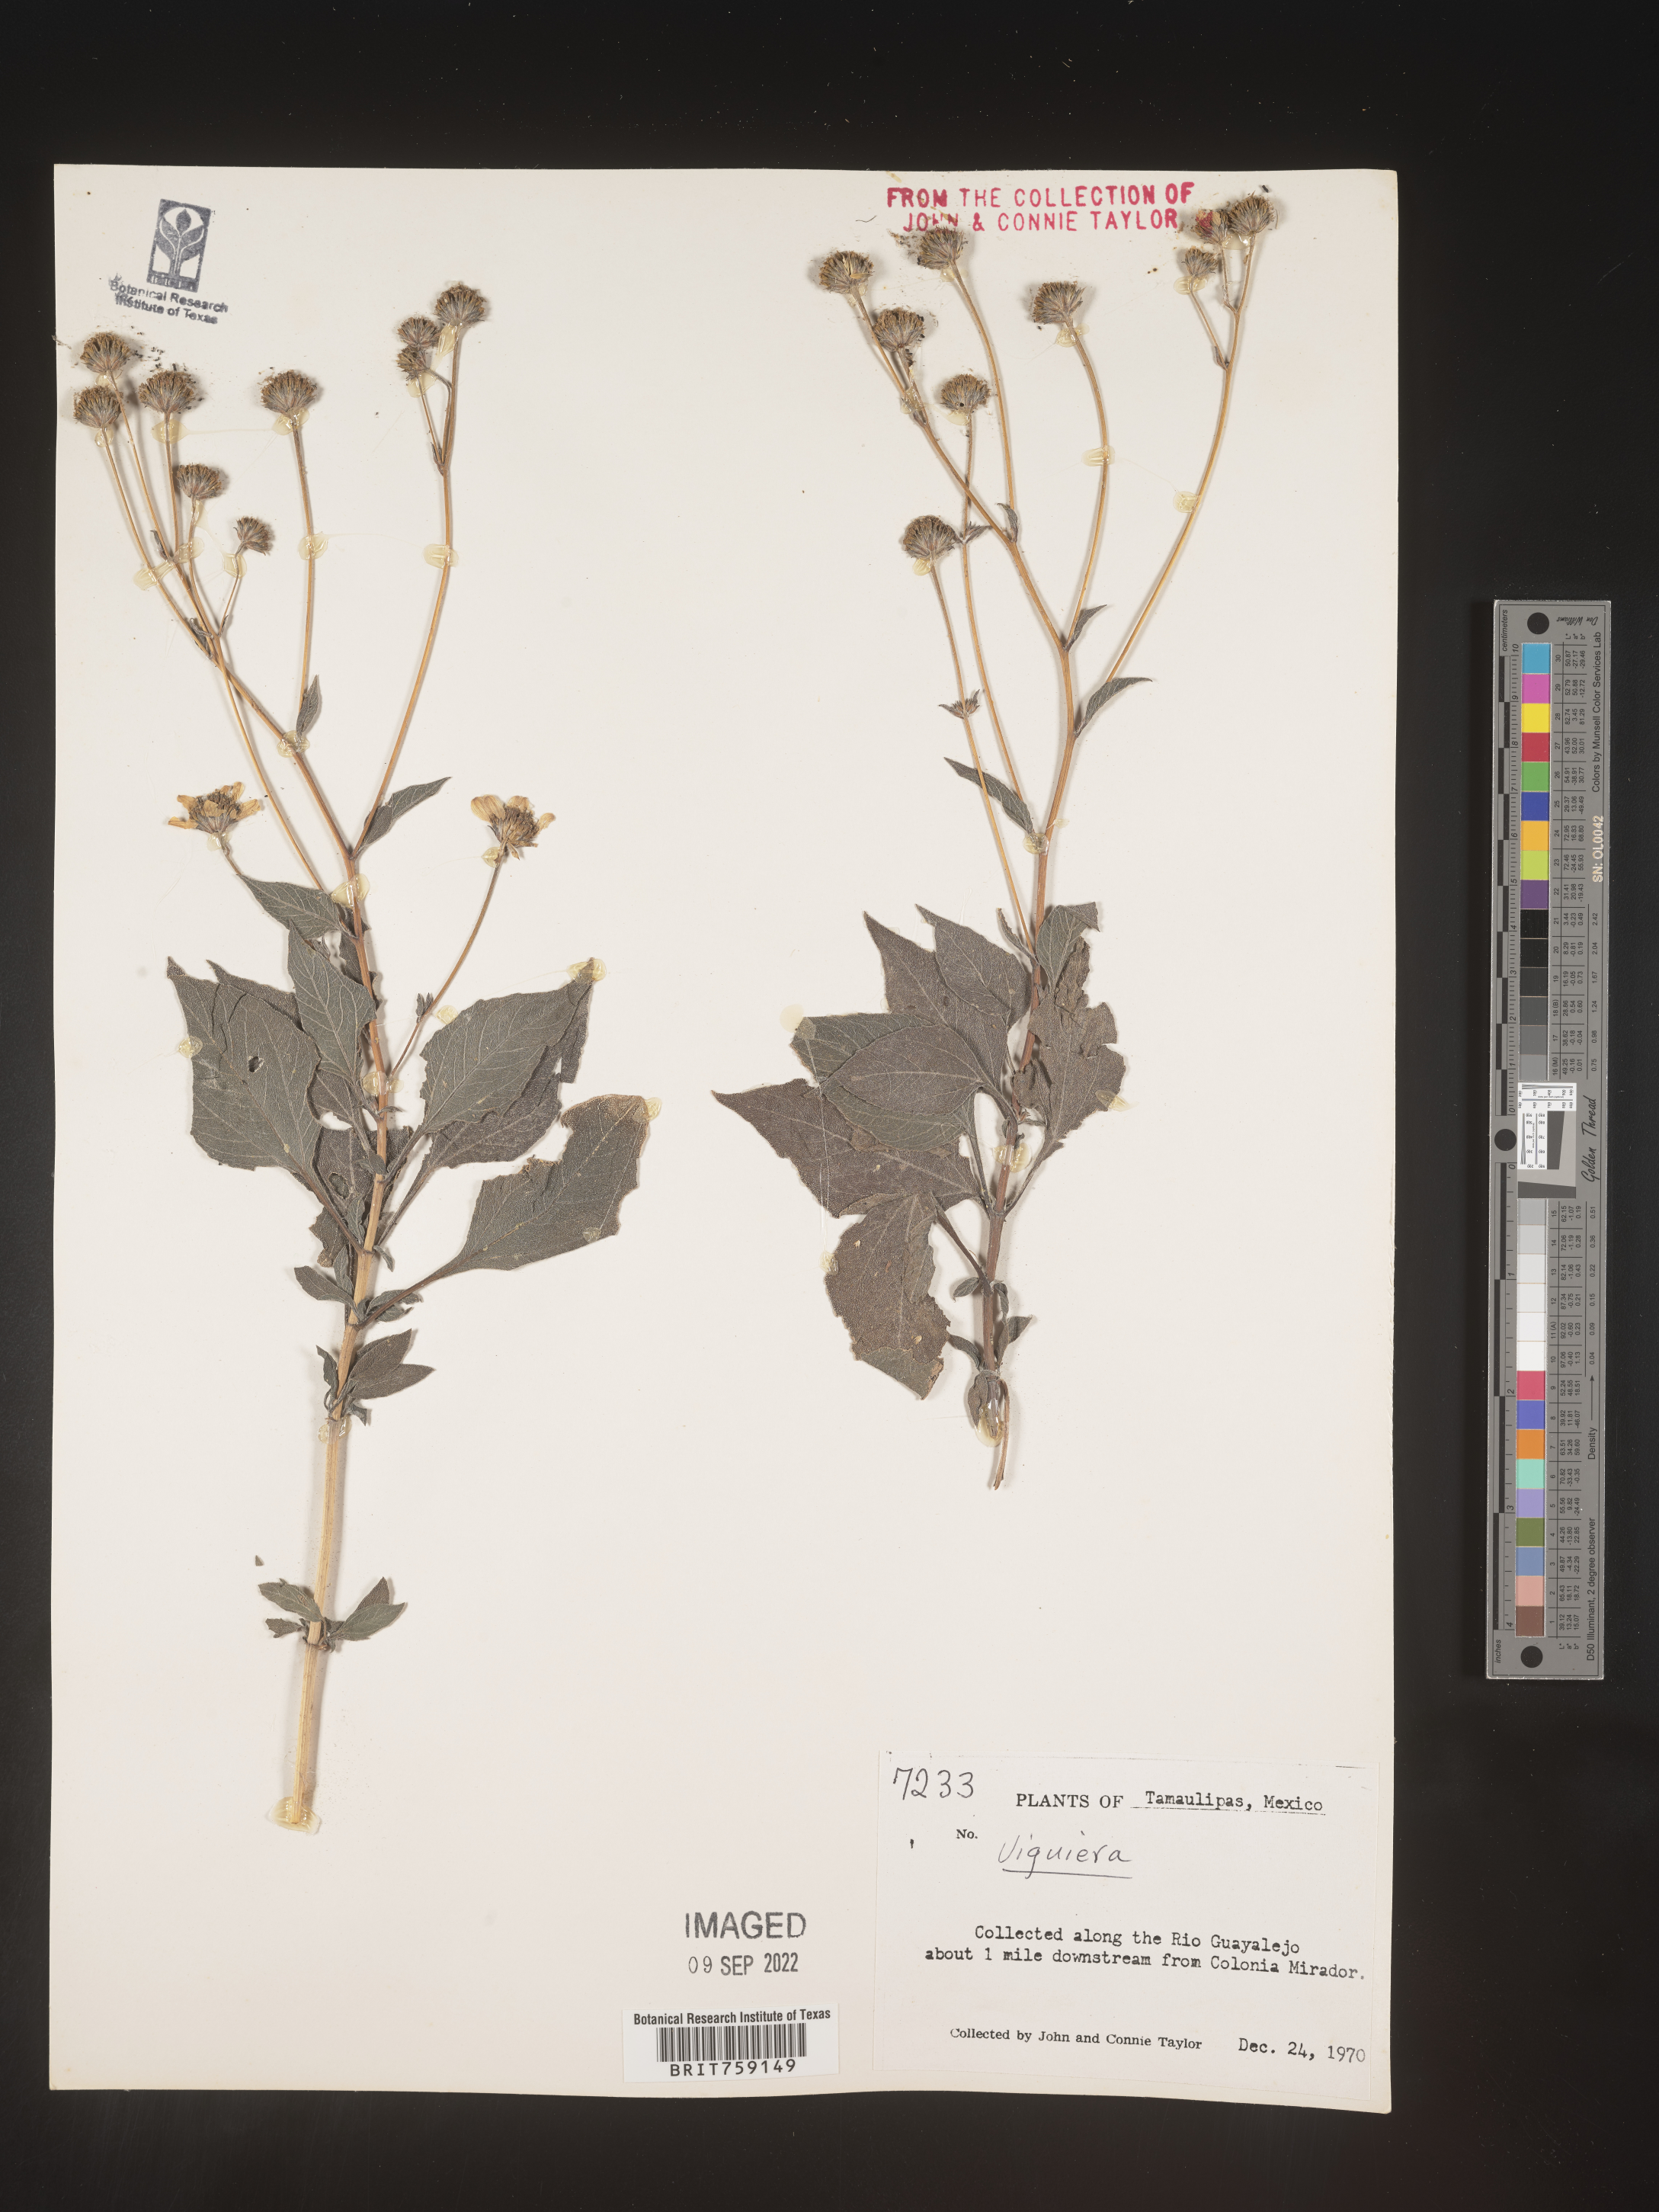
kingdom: Plantae
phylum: Tracheophyta
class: Magnoliopsida
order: Asterales
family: Asteraceae
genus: Viguiera
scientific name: Viguiera
